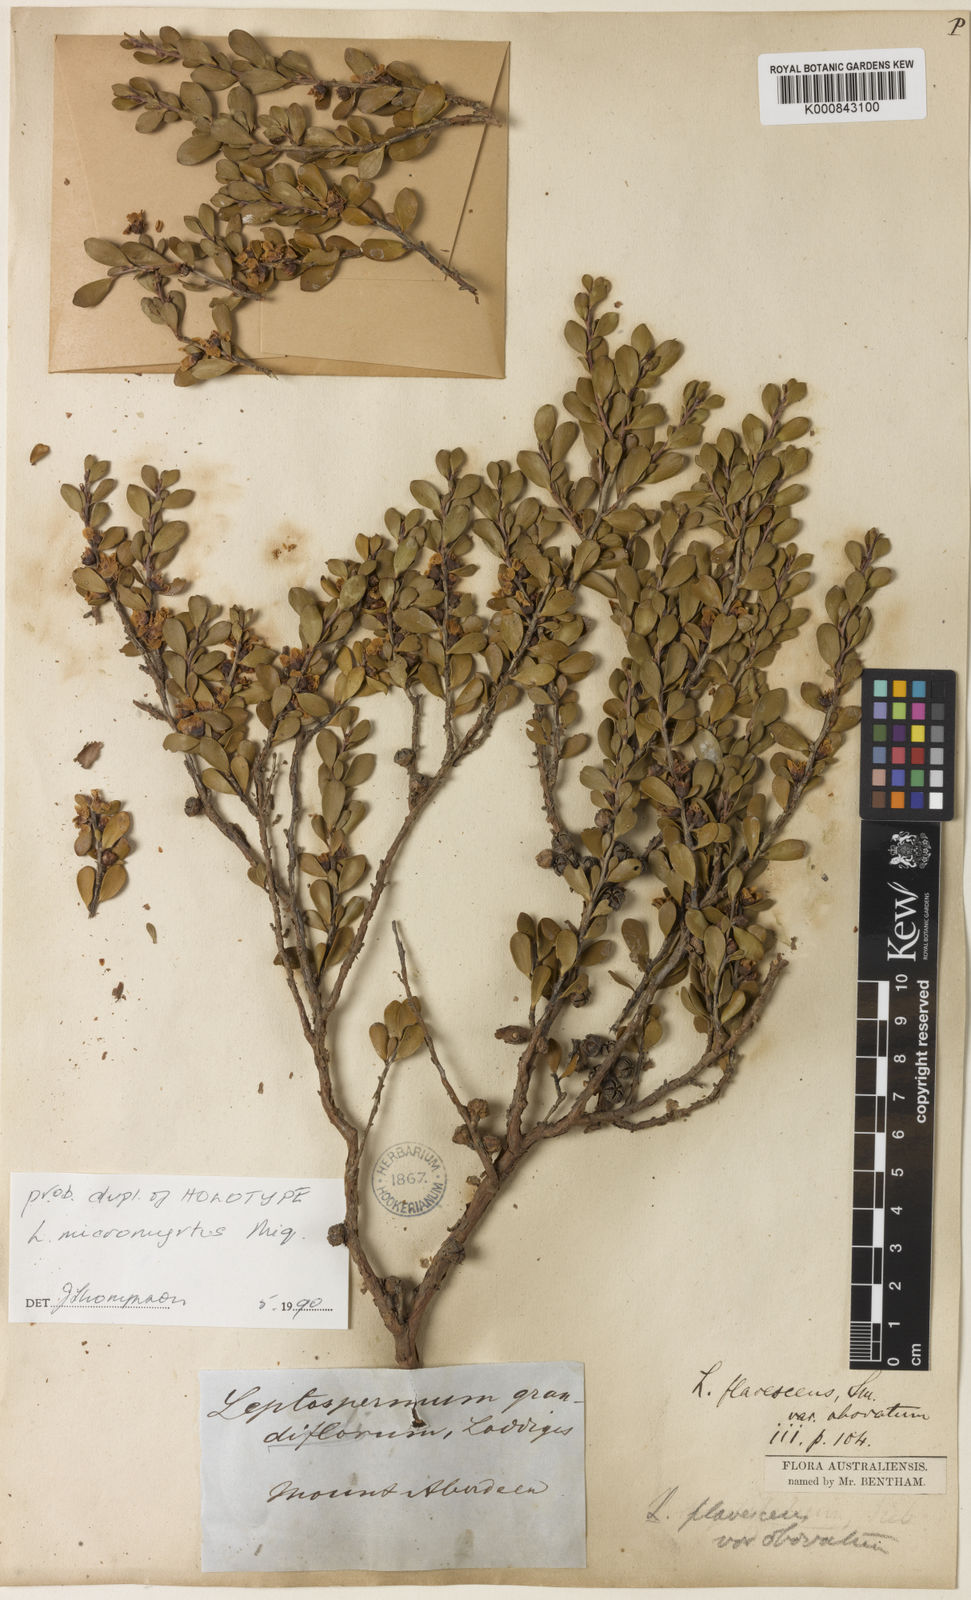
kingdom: Plantae
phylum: Tracheophyta
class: Magnoliopsida
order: Myrtales
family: Myrtaceae
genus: Leptospermum
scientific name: Leptospermum micromyrtus
